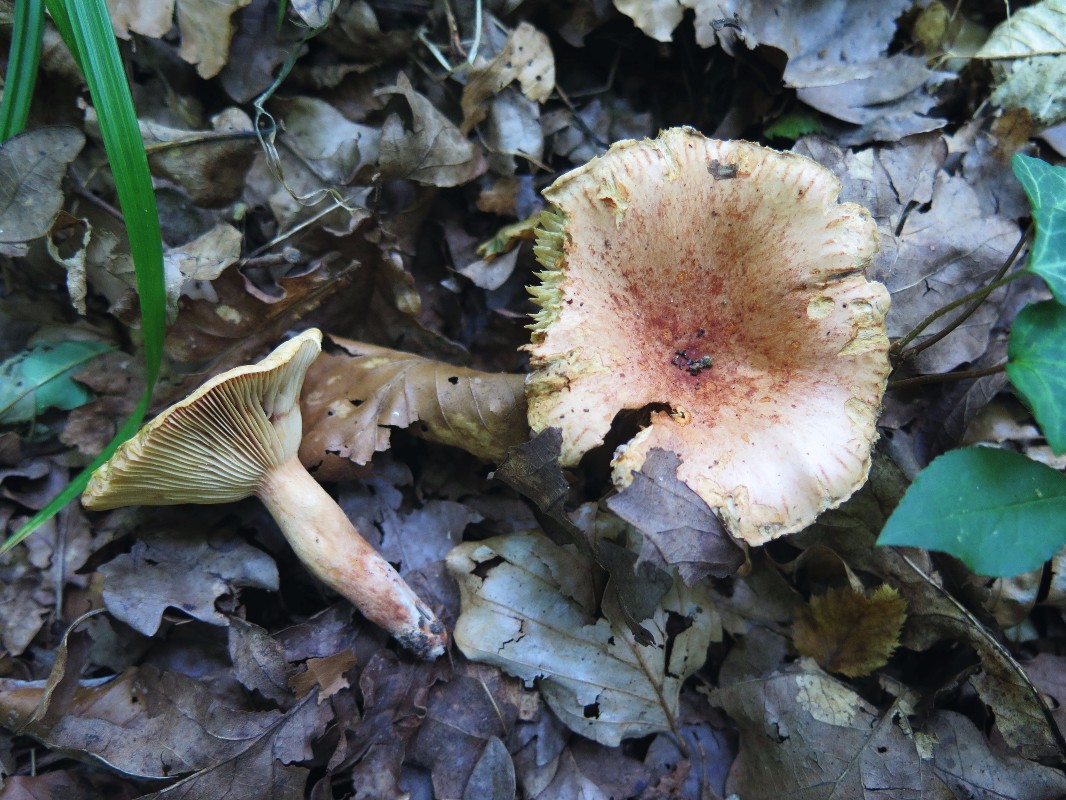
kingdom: Fungi
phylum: Basidiomycota
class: Agaricomycetes
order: Russulales
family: Russulaceae
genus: Lactarius
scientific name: Lactarius rubrocinctus
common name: halsbånd-mælkehat
